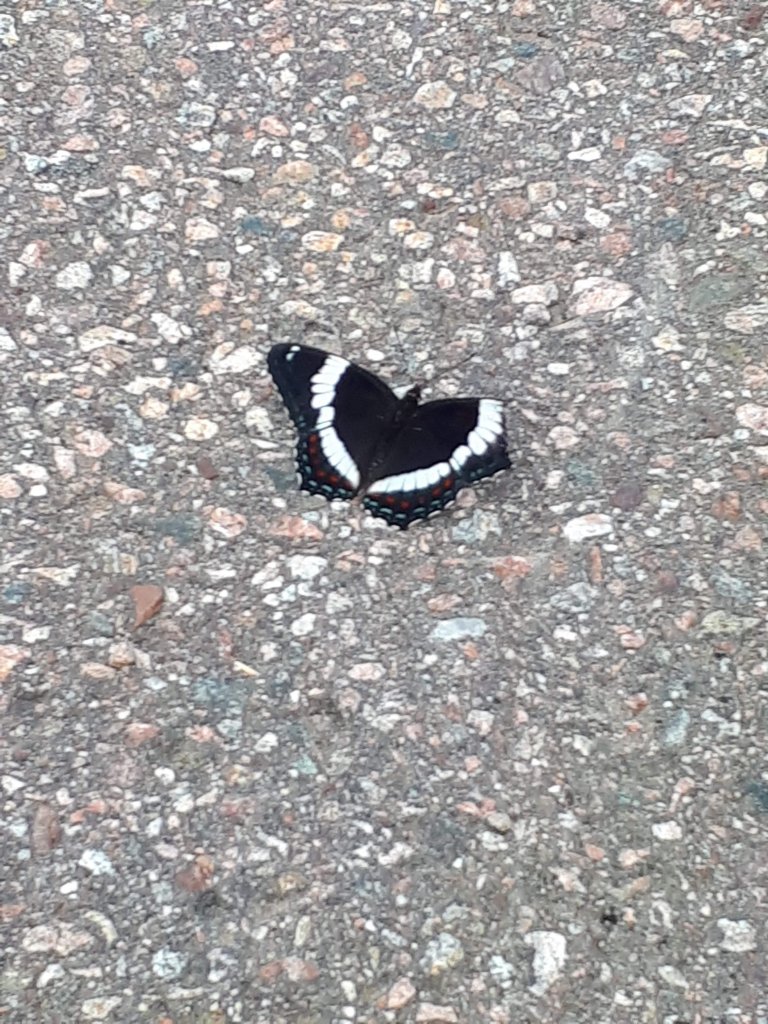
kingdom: Animalia
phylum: Arthropoda
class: Insecta
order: Lepidoptera
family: Nymphalidae
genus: Limenitis
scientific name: Limenitis arthemis
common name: Red-spotted Admiral
